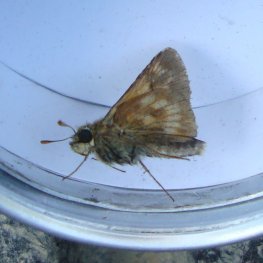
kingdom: Animalia
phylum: Arthropoda
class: Insecta
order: Lepidoptera
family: Hesperiidae
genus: Polites
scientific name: Polites
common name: Long Dash Skipper
